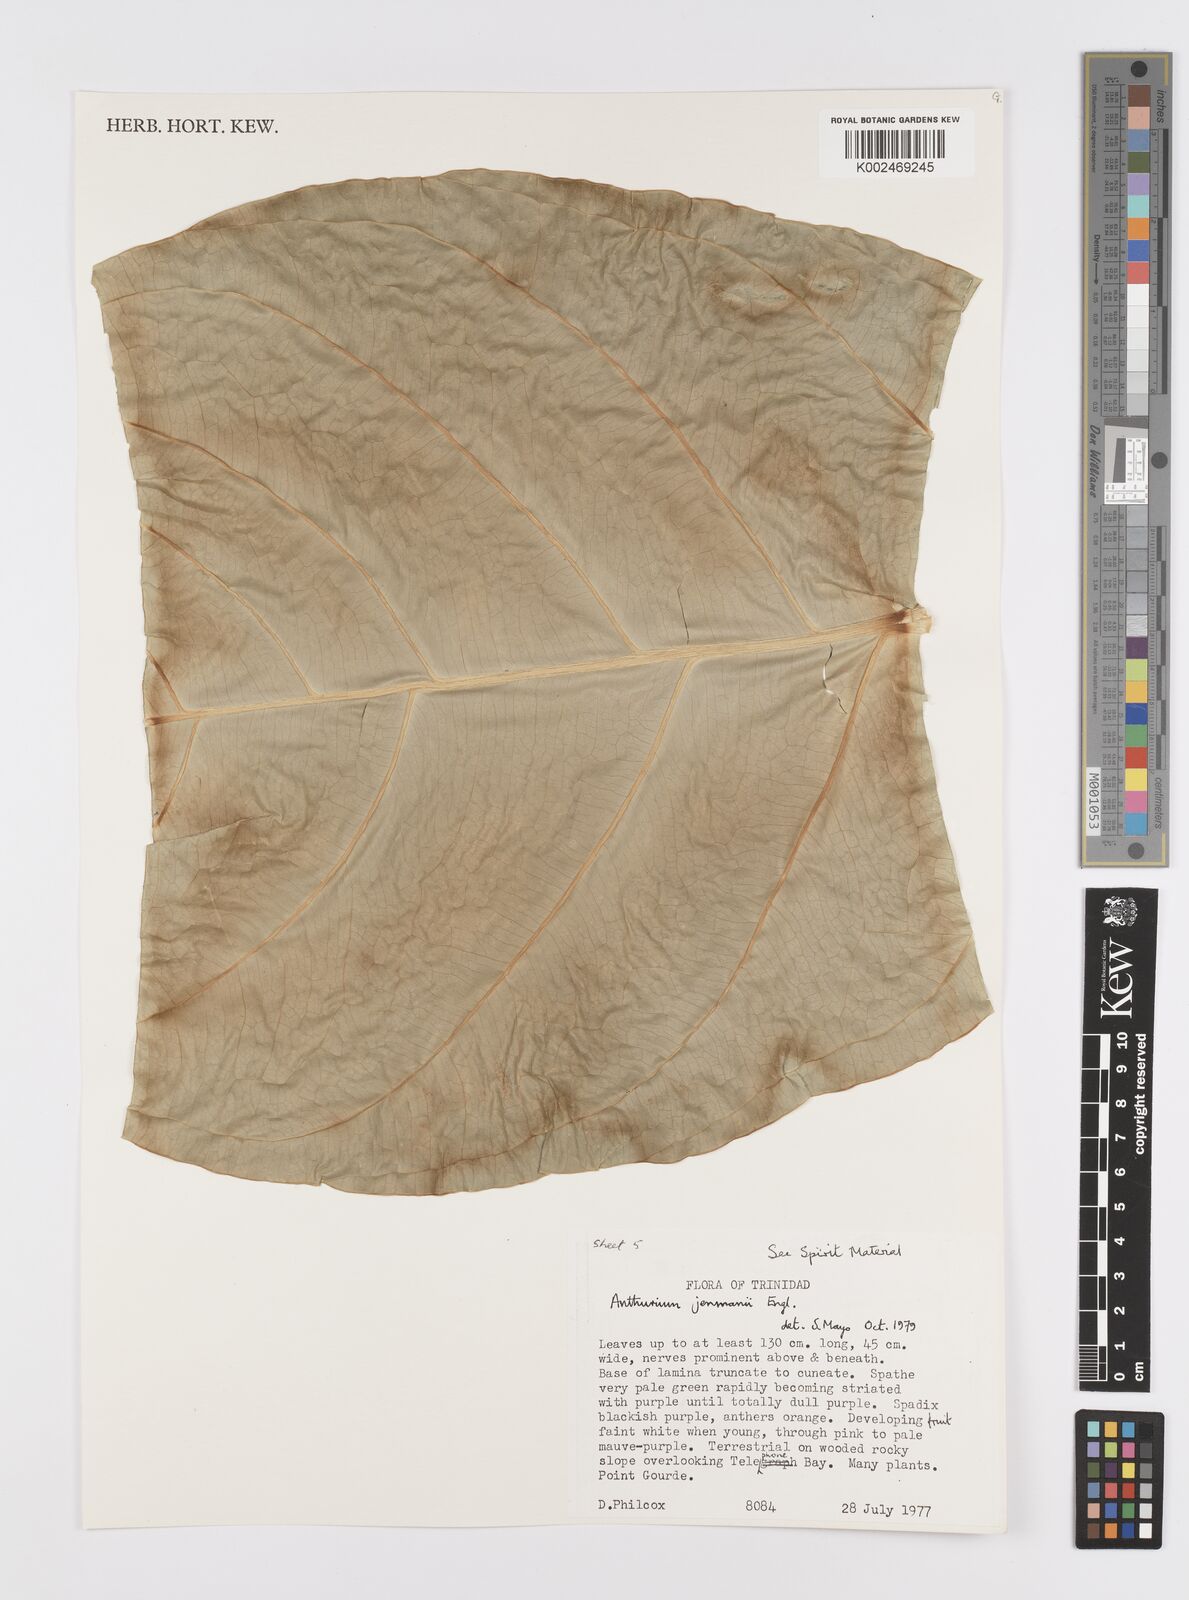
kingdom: Plantae
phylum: Tracheophyta
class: Liliopsida
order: Alismatales
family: Araceae
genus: Anthurium
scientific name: Anthurium jenmanii
